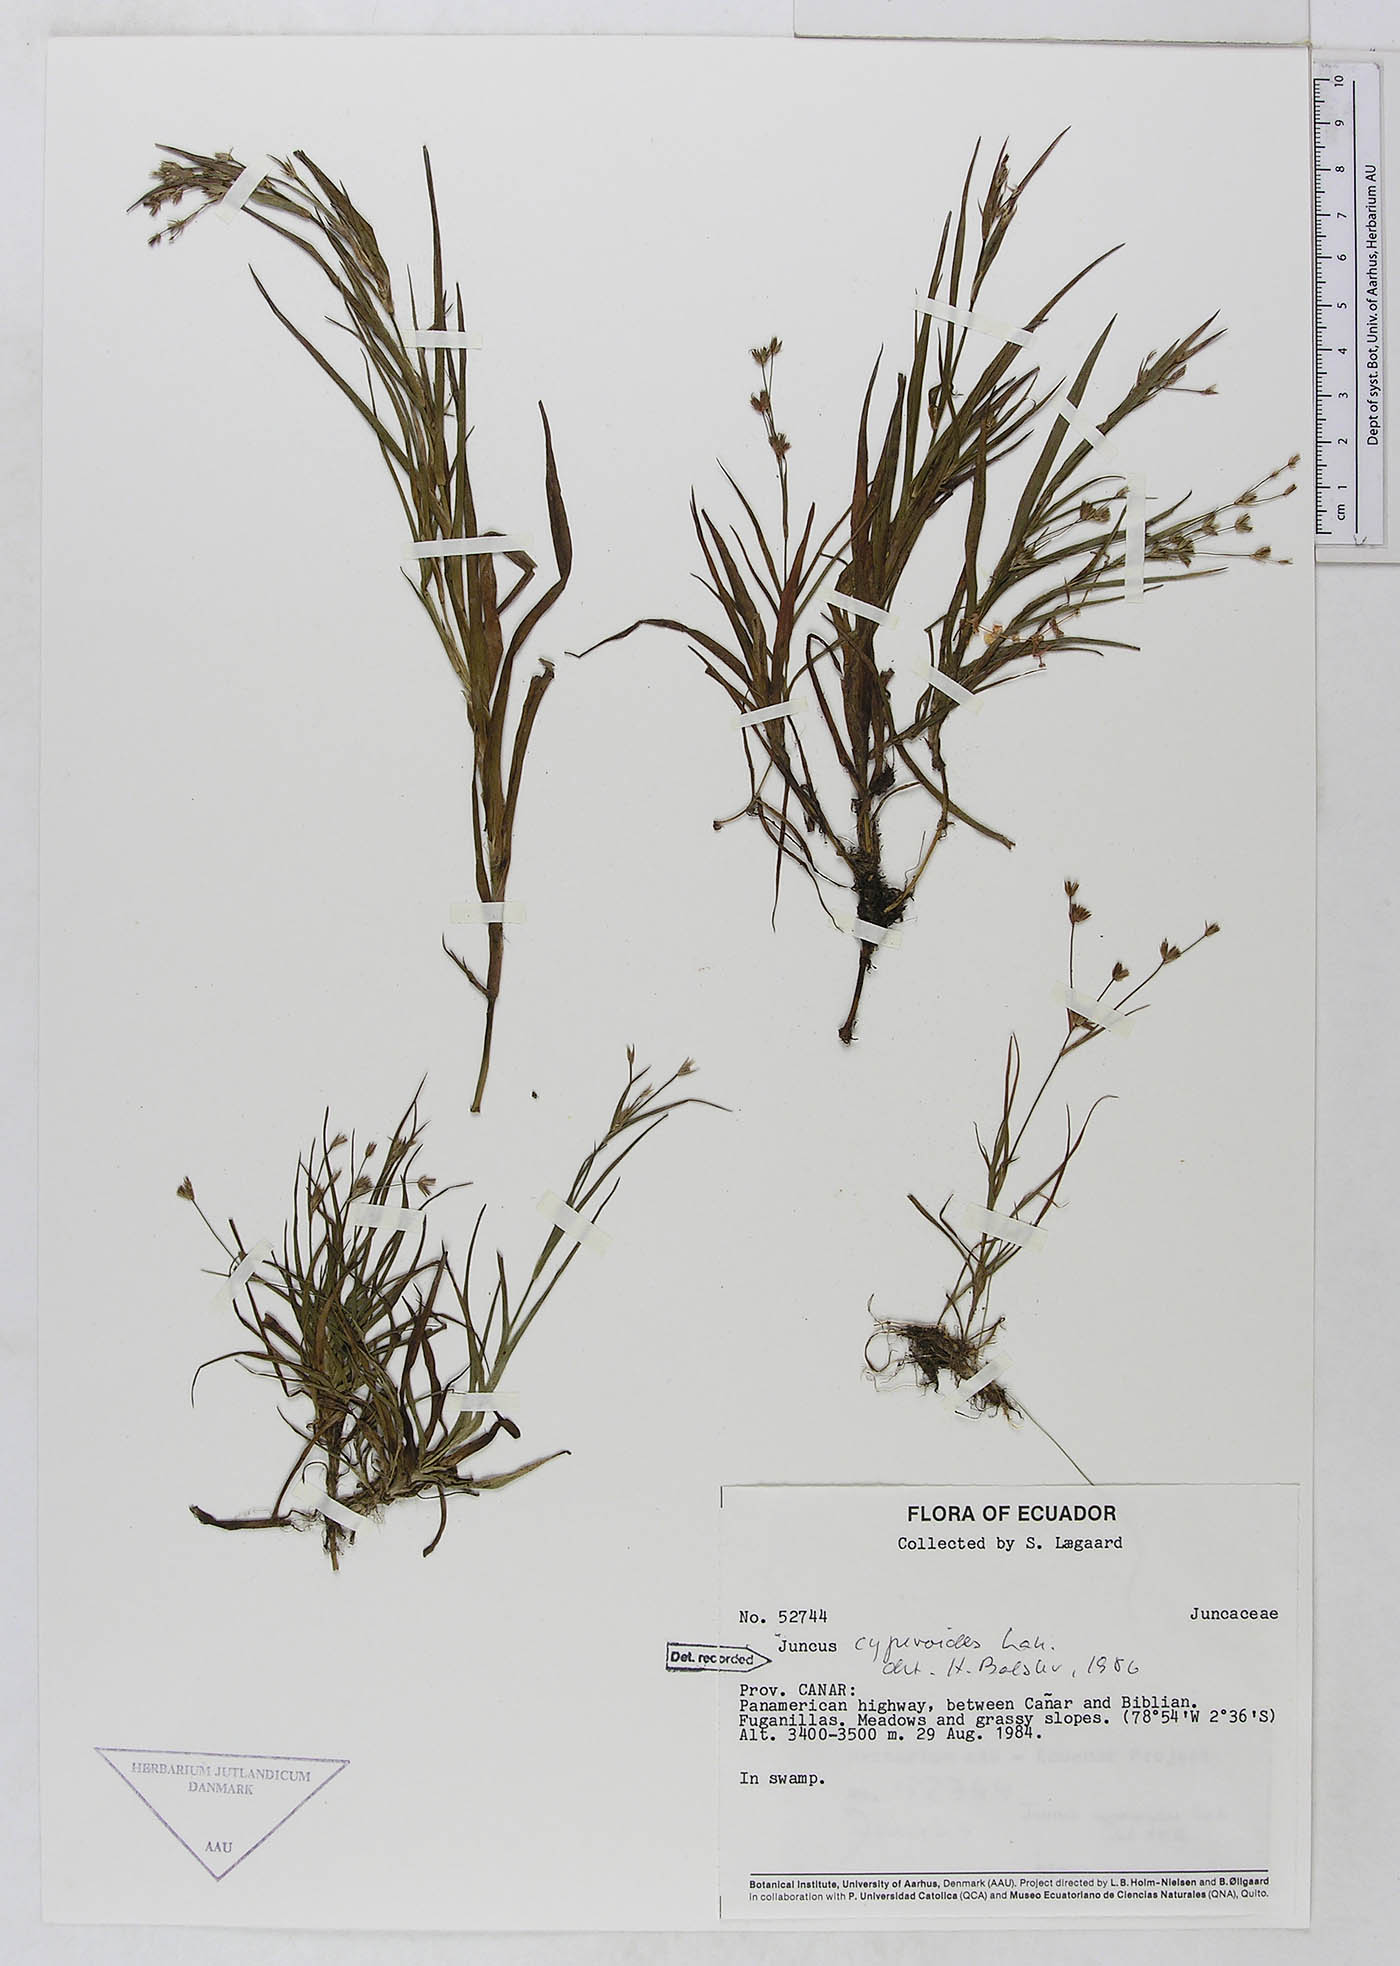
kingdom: Plantae
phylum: Tracheophyta
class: Liliopsida
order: Poales
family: Juncaceae
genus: Juncus
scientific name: Juncus cyperoides
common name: Forbestown rush
